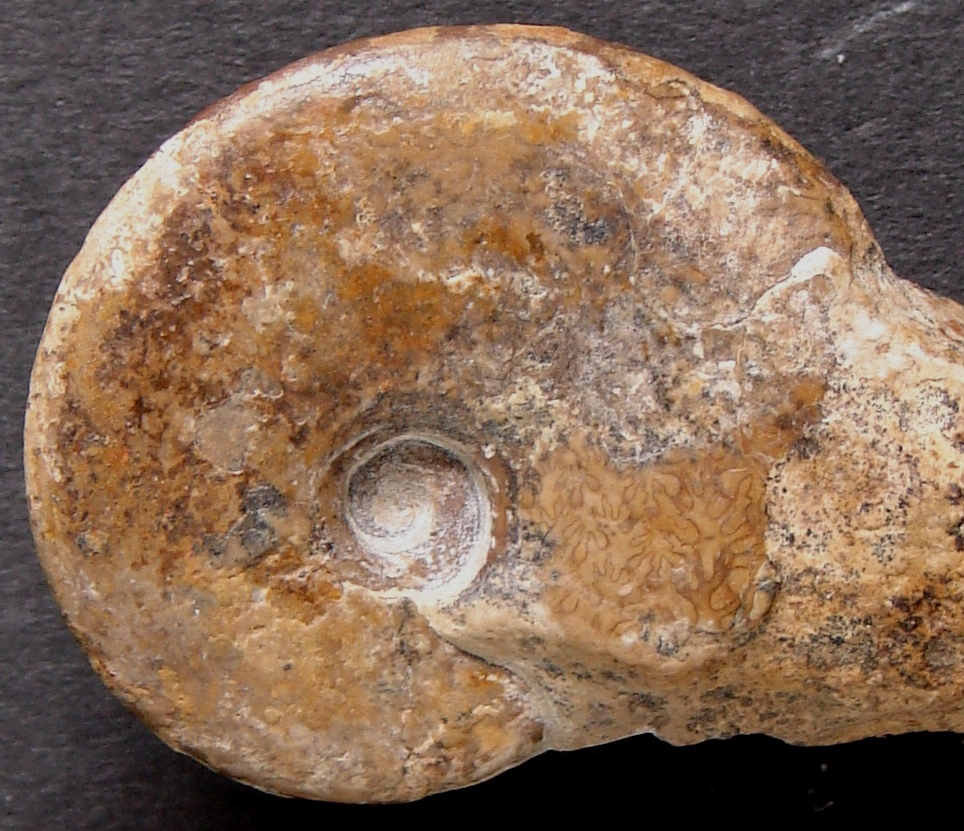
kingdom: Animalia
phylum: Mollusca
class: Cephalopoda
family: Oxynoticeratidae
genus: Radstockiceras
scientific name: Radstockiceras complanosum
